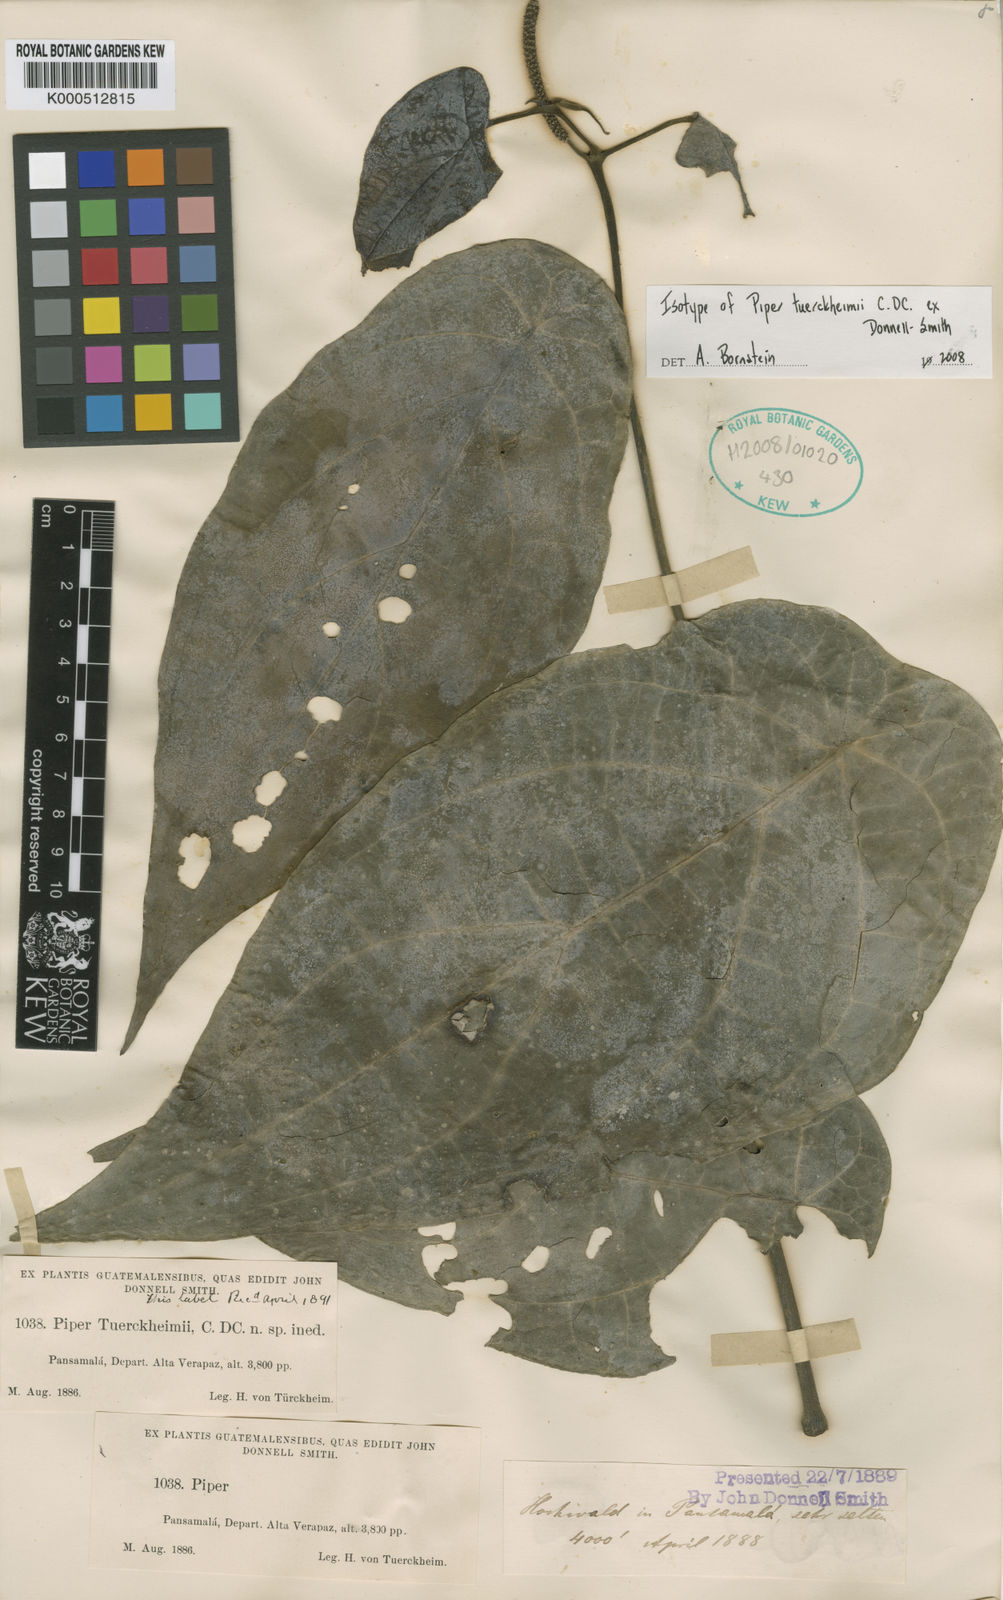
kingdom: Plantae
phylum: Tracheophyta
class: Magnoliopsida
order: Piperales
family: Piperaceae
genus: Piper
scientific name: Piper tuerckheimii
